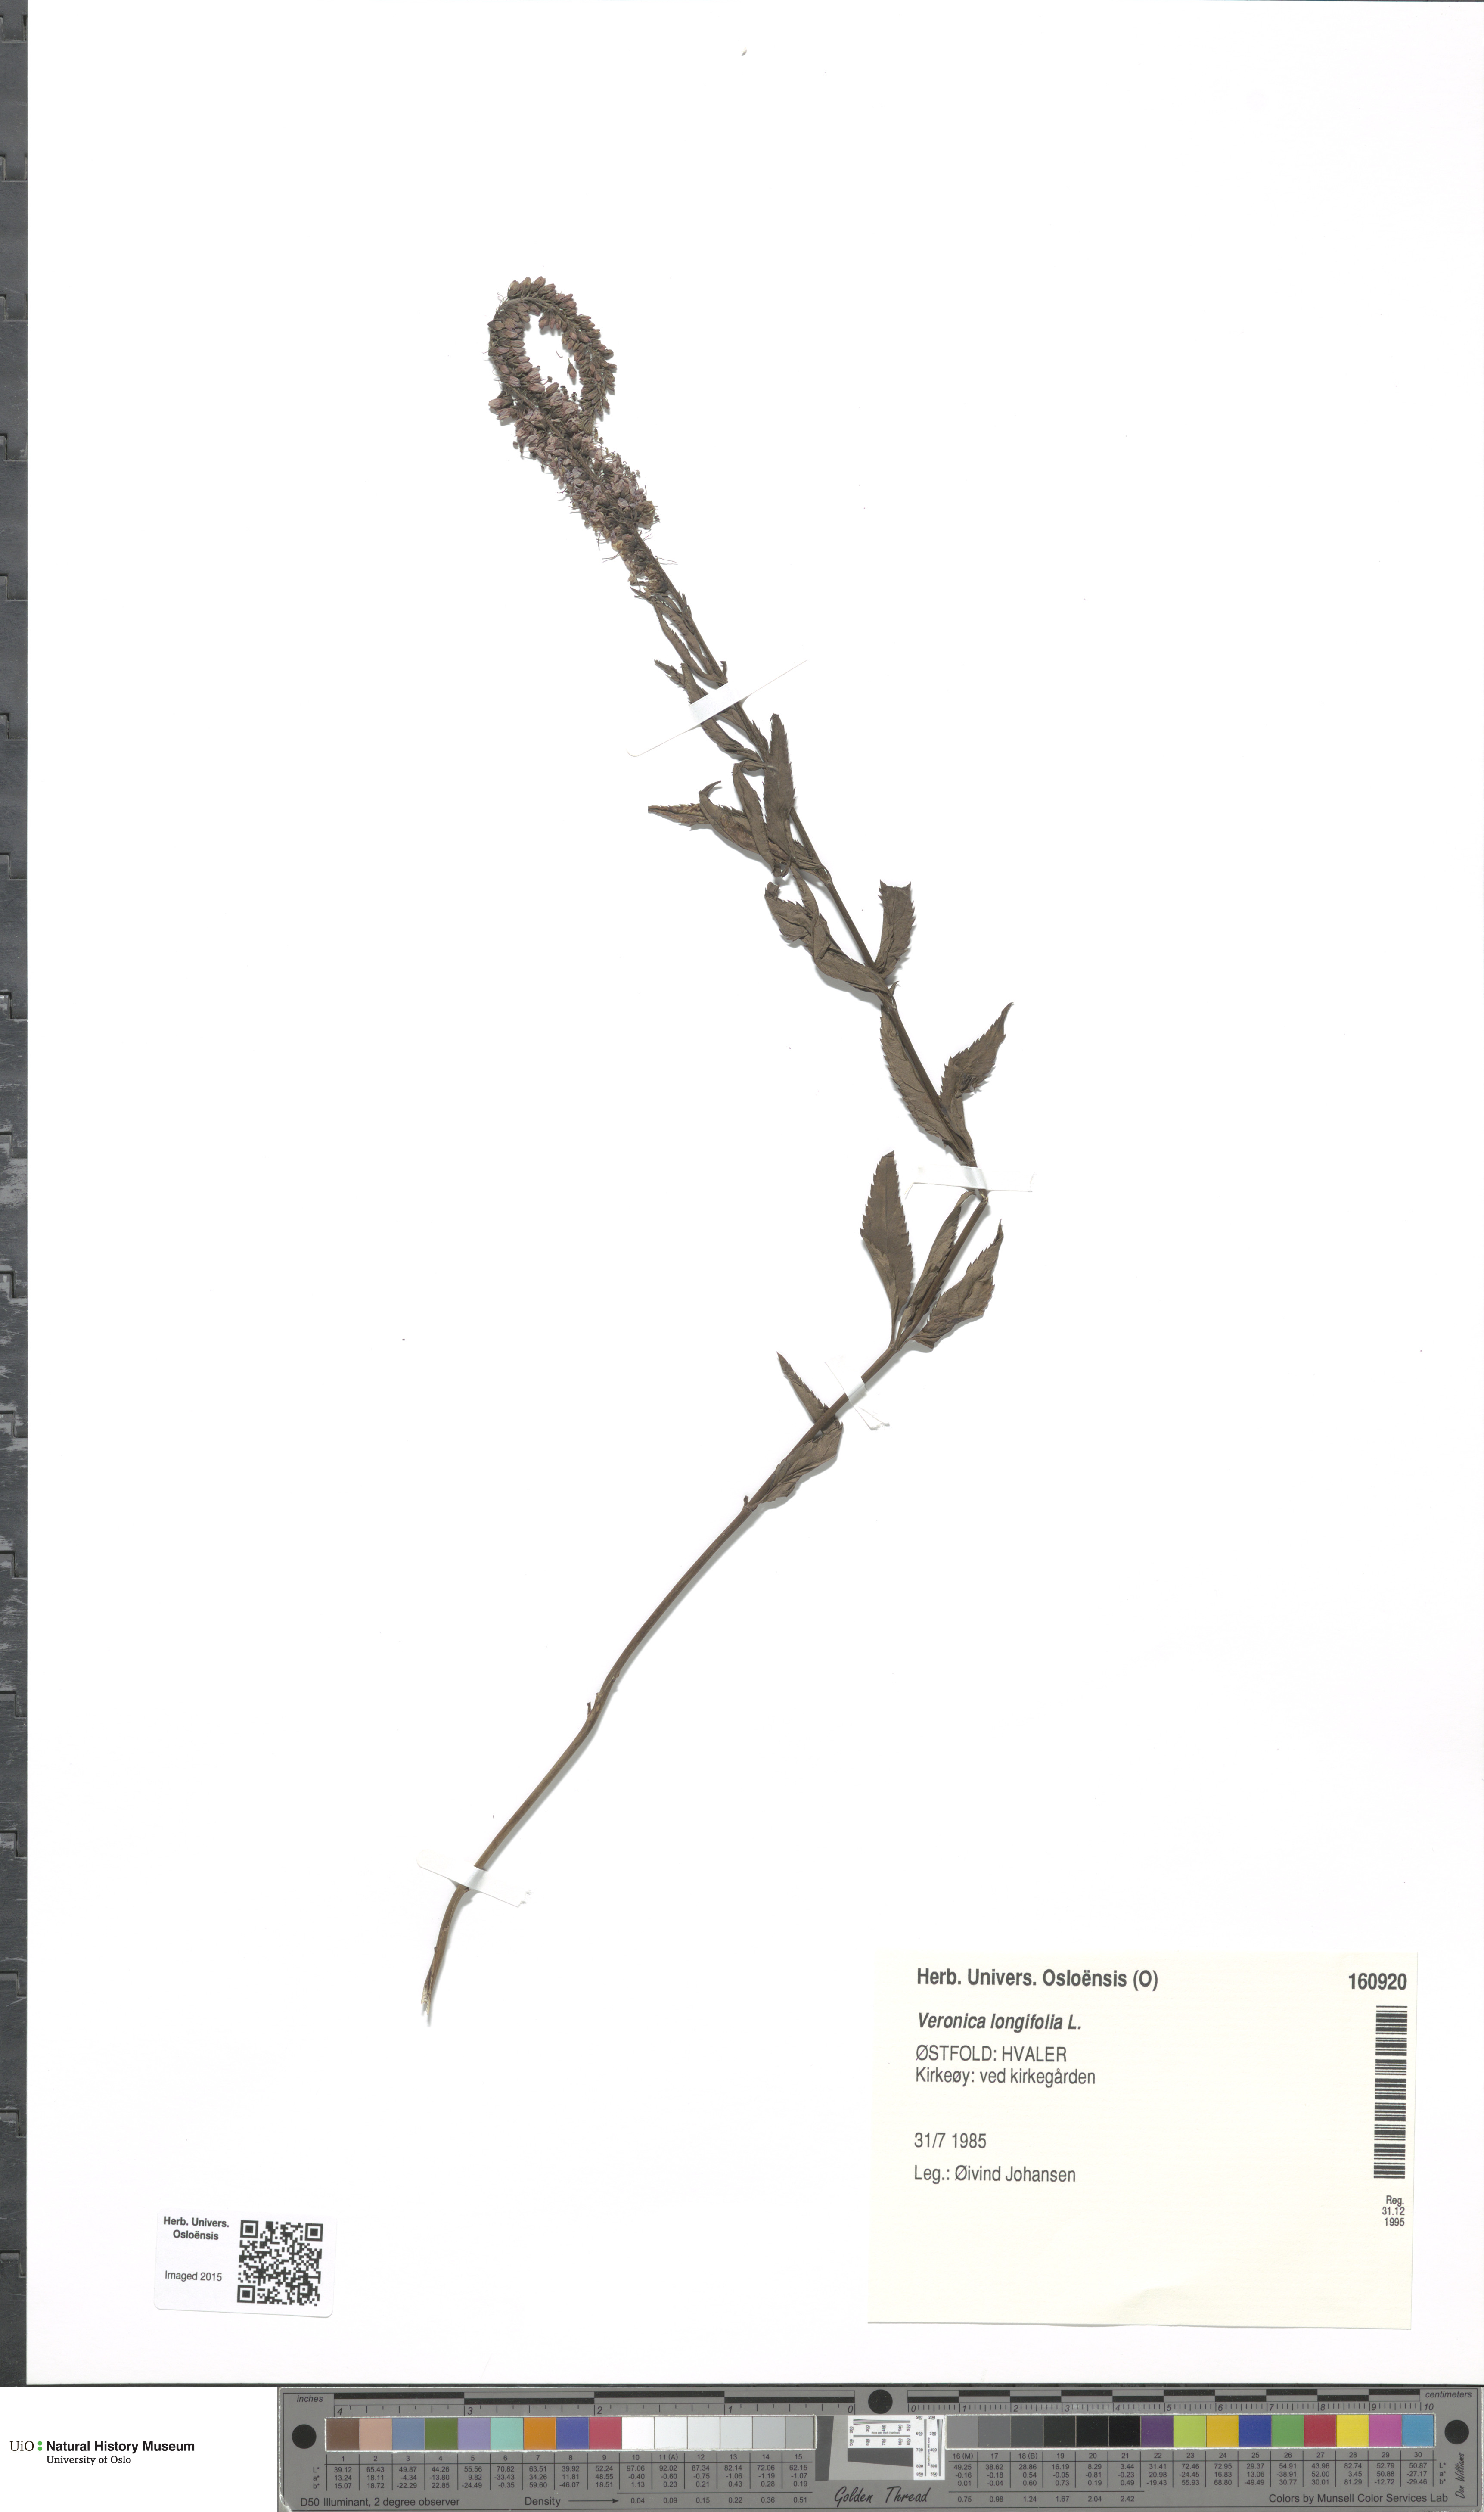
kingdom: Plantae
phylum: Tracheophyta
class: Magnoliopsida
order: Lamiales
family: Plantaginaceae
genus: Veronica
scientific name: Veronica longifolia
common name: Garden speedwell
